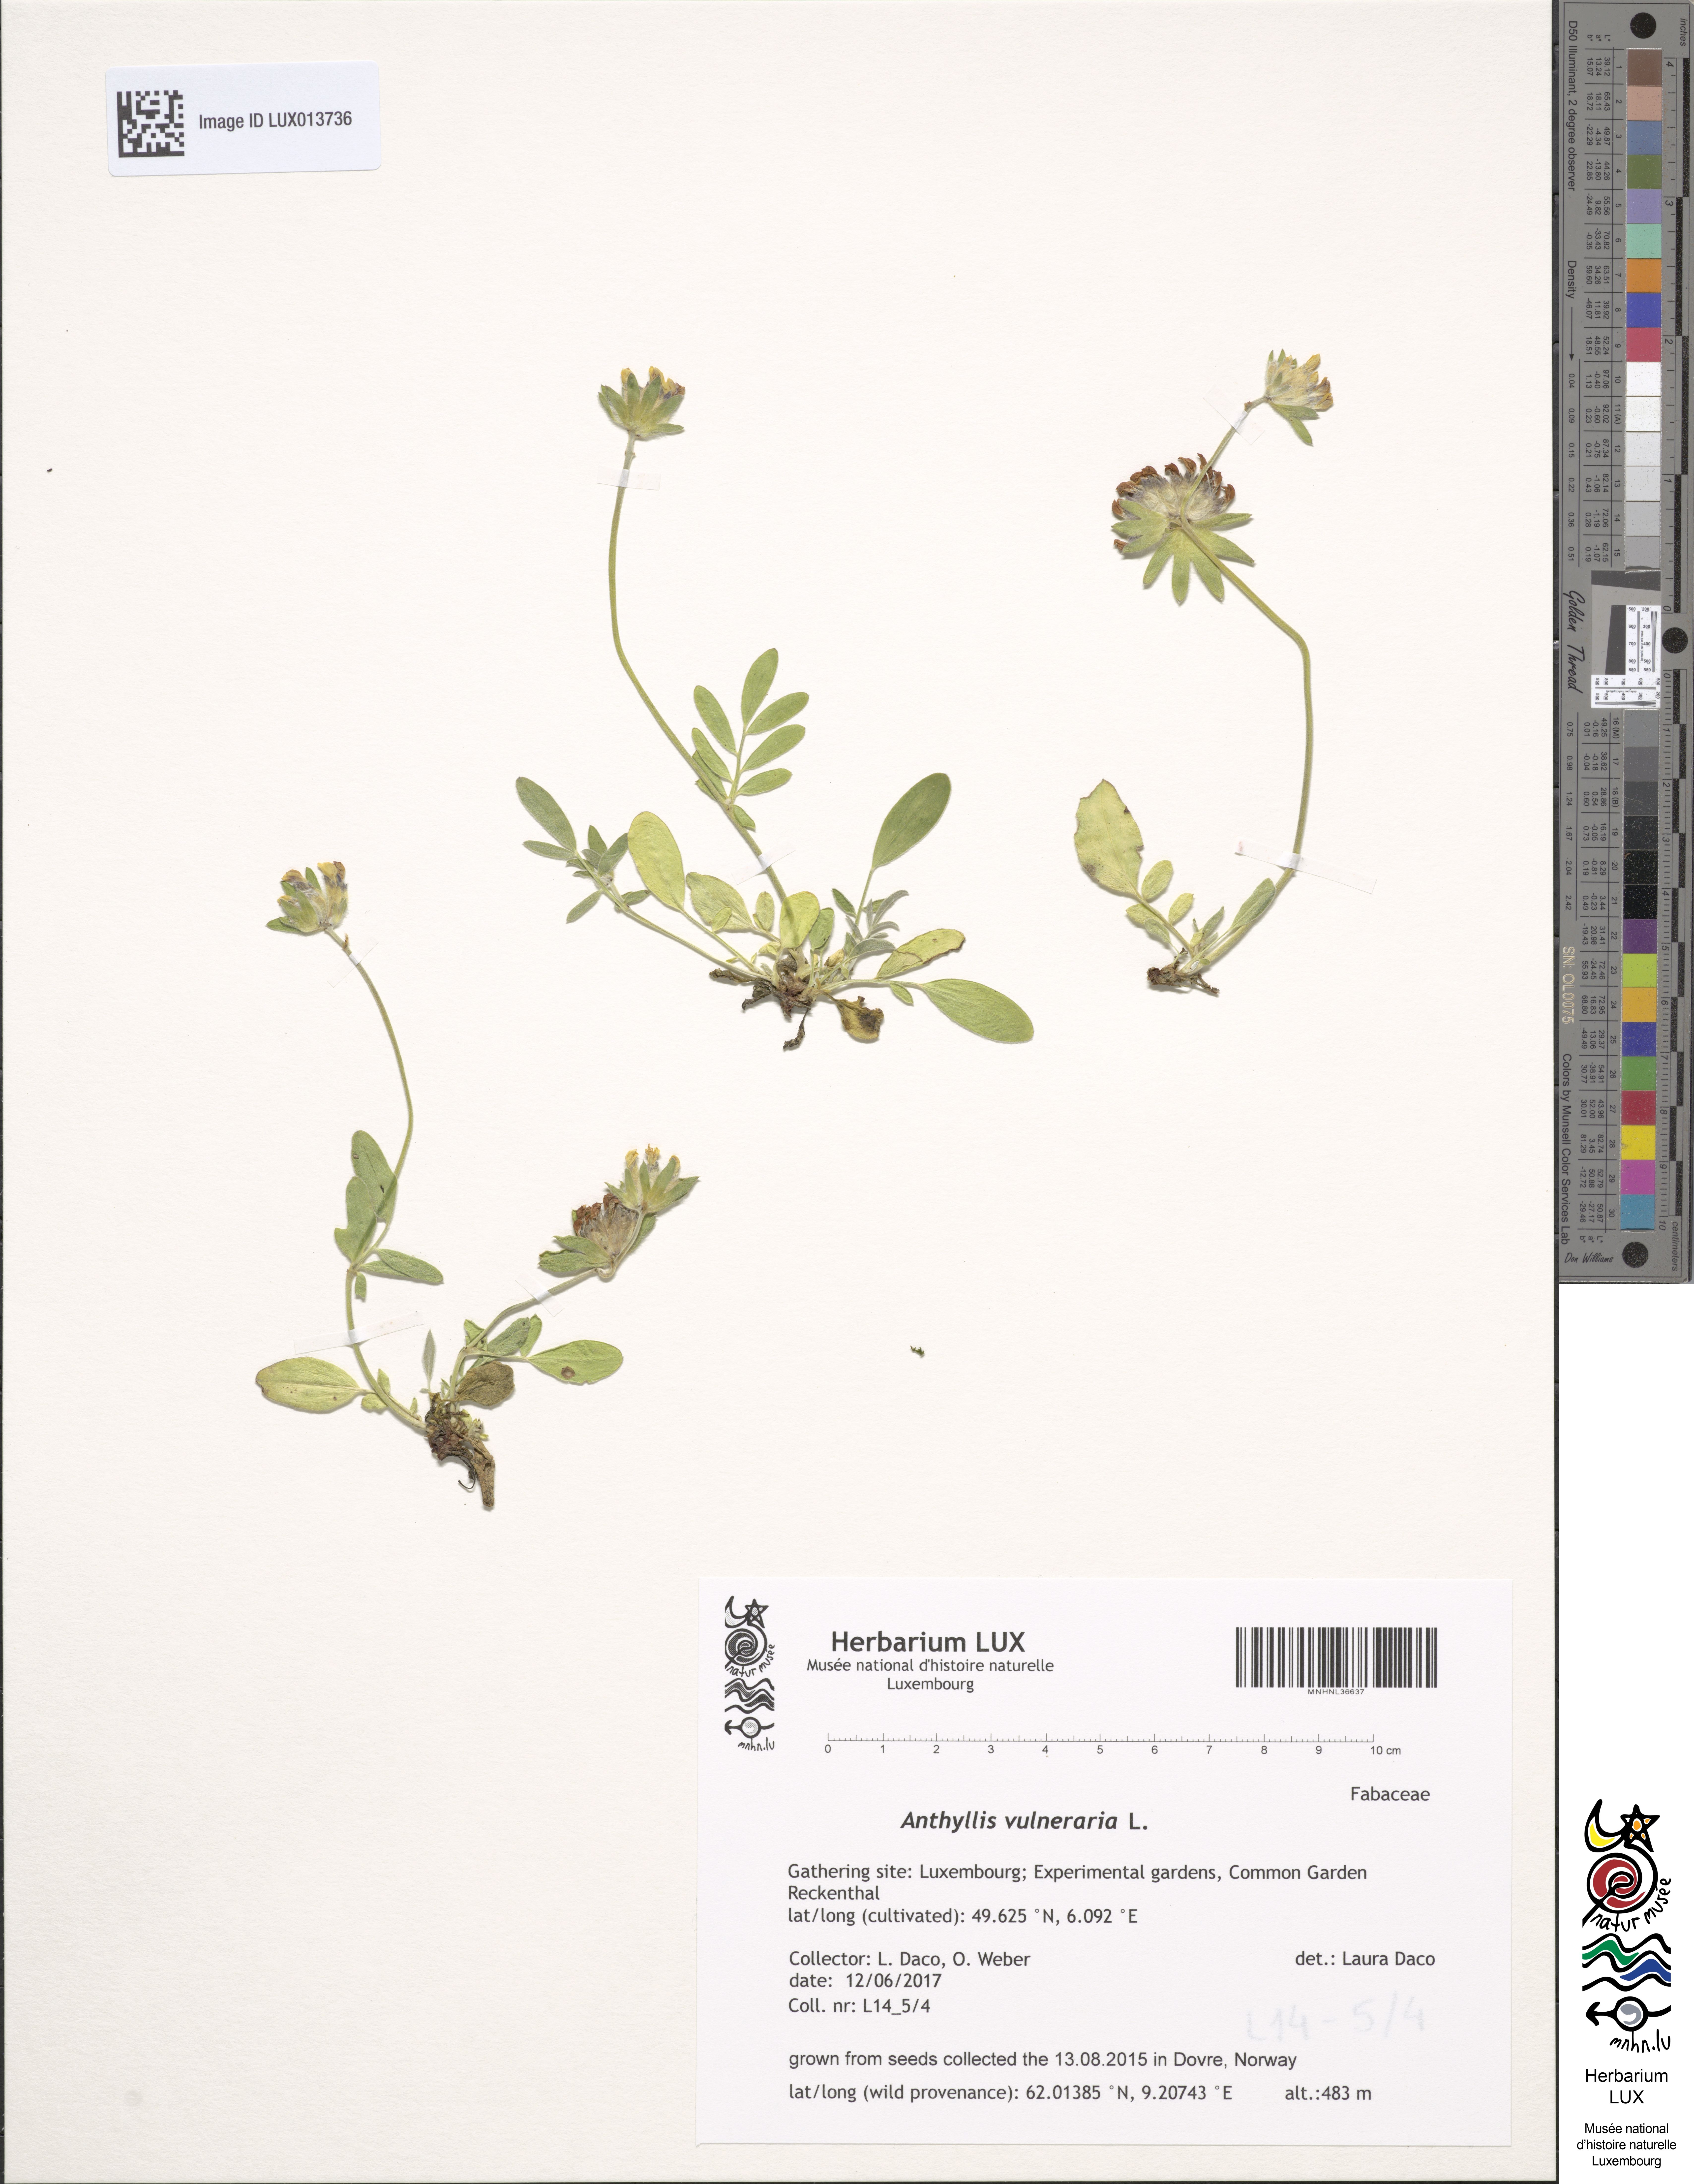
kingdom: Plantae
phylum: Tracheophyta
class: Magnoliopsida
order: Fabales
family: Fabaceae
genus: Anthyllis
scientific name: Anthyllis vulneraria
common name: Kidney vetch
